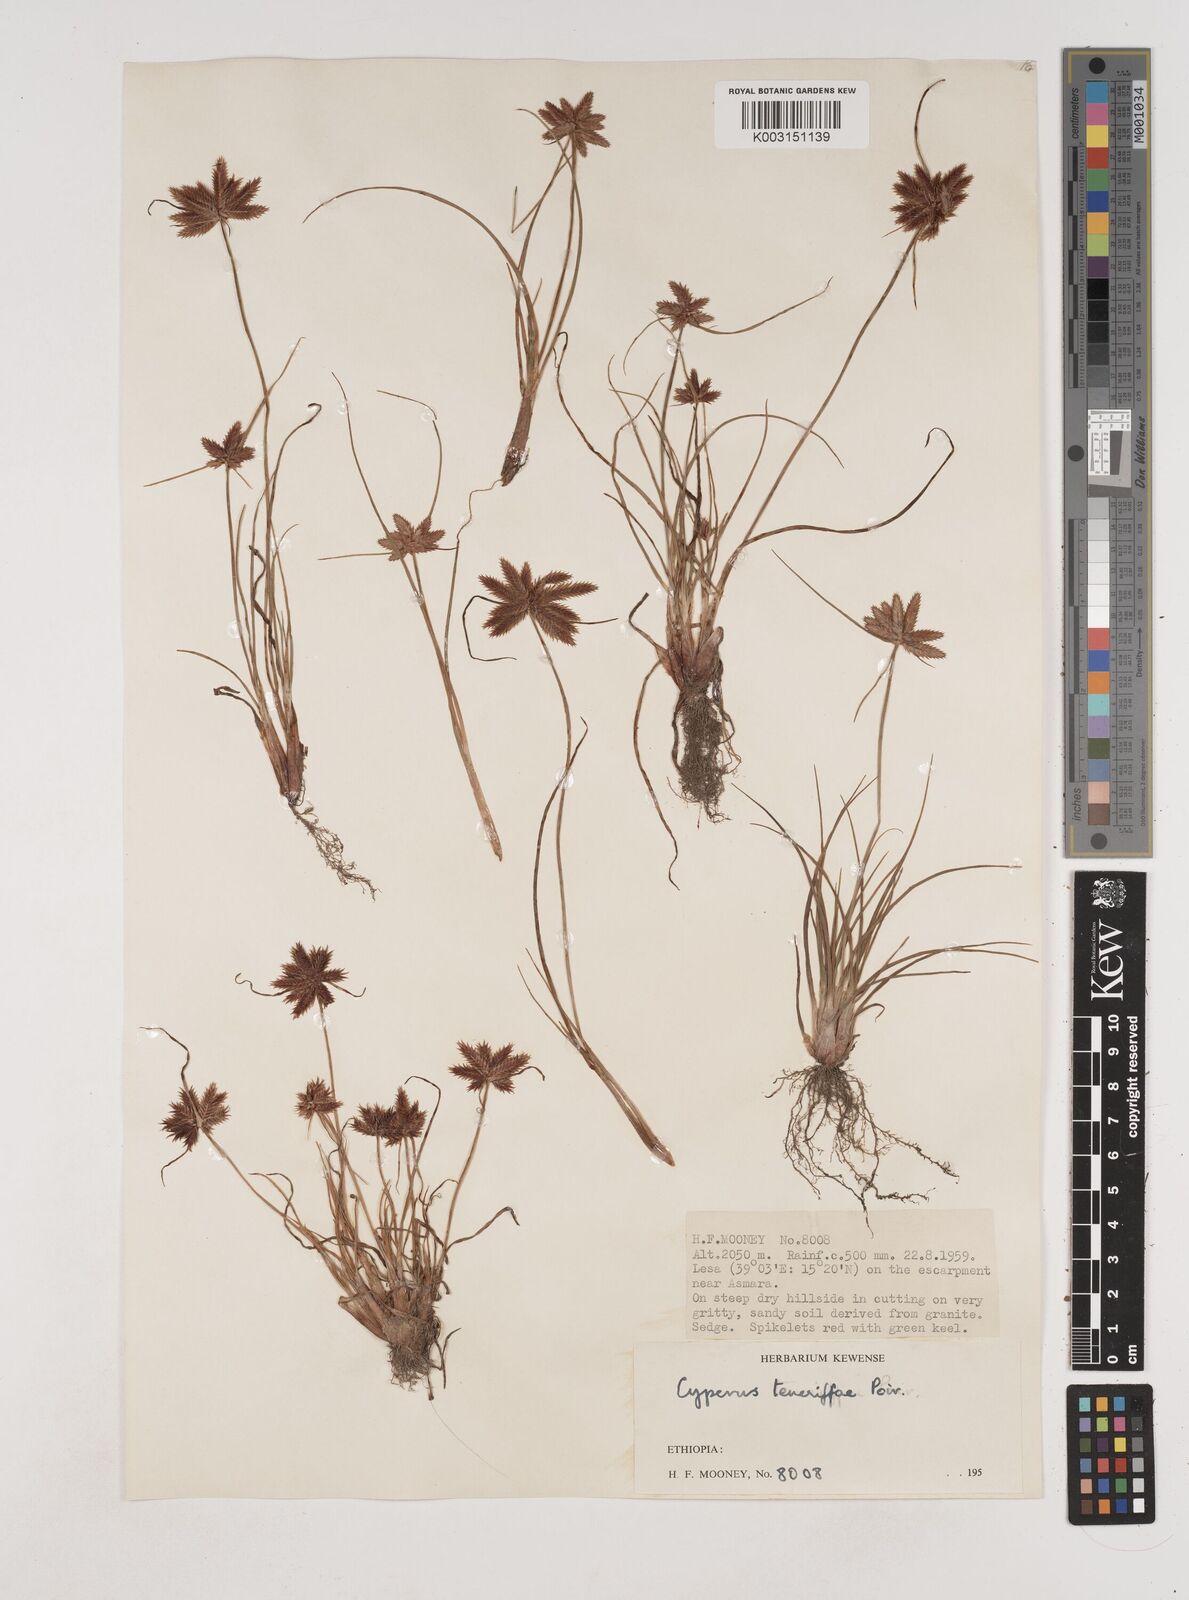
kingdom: Plantae
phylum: Tracheophyta
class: Liliopsida
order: Poales
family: Cyperaceae
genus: Cyperus
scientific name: Cyperus rubicundus
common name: Coco-grass
